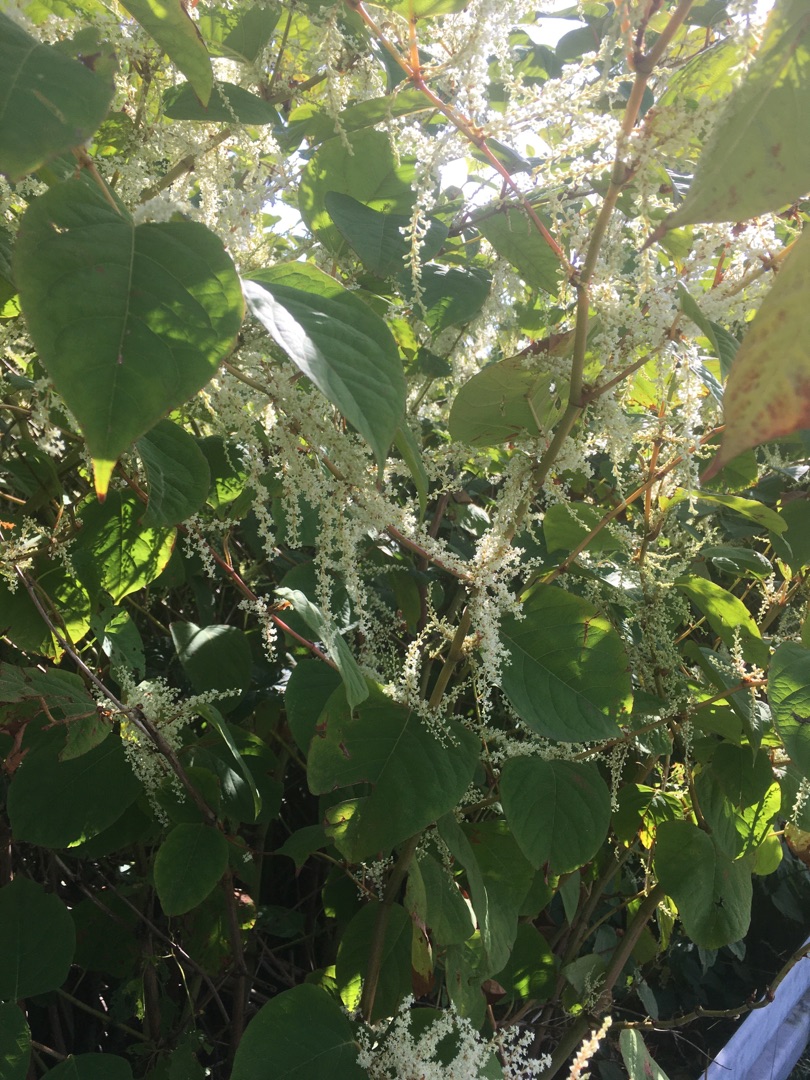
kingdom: Plantae
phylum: Tracheophyta
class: Magnoliopsida
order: Caryophyllales
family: Polygonaceae
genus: Reynoutria
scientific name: Reynoutria japonica
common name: Japan-pileurt
